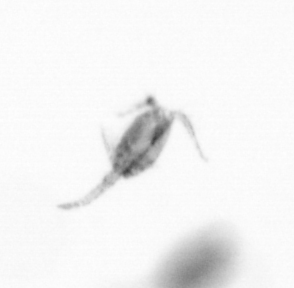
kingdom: Animalia
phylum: Arthropoda
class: Copepoda
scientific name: Copepoda
